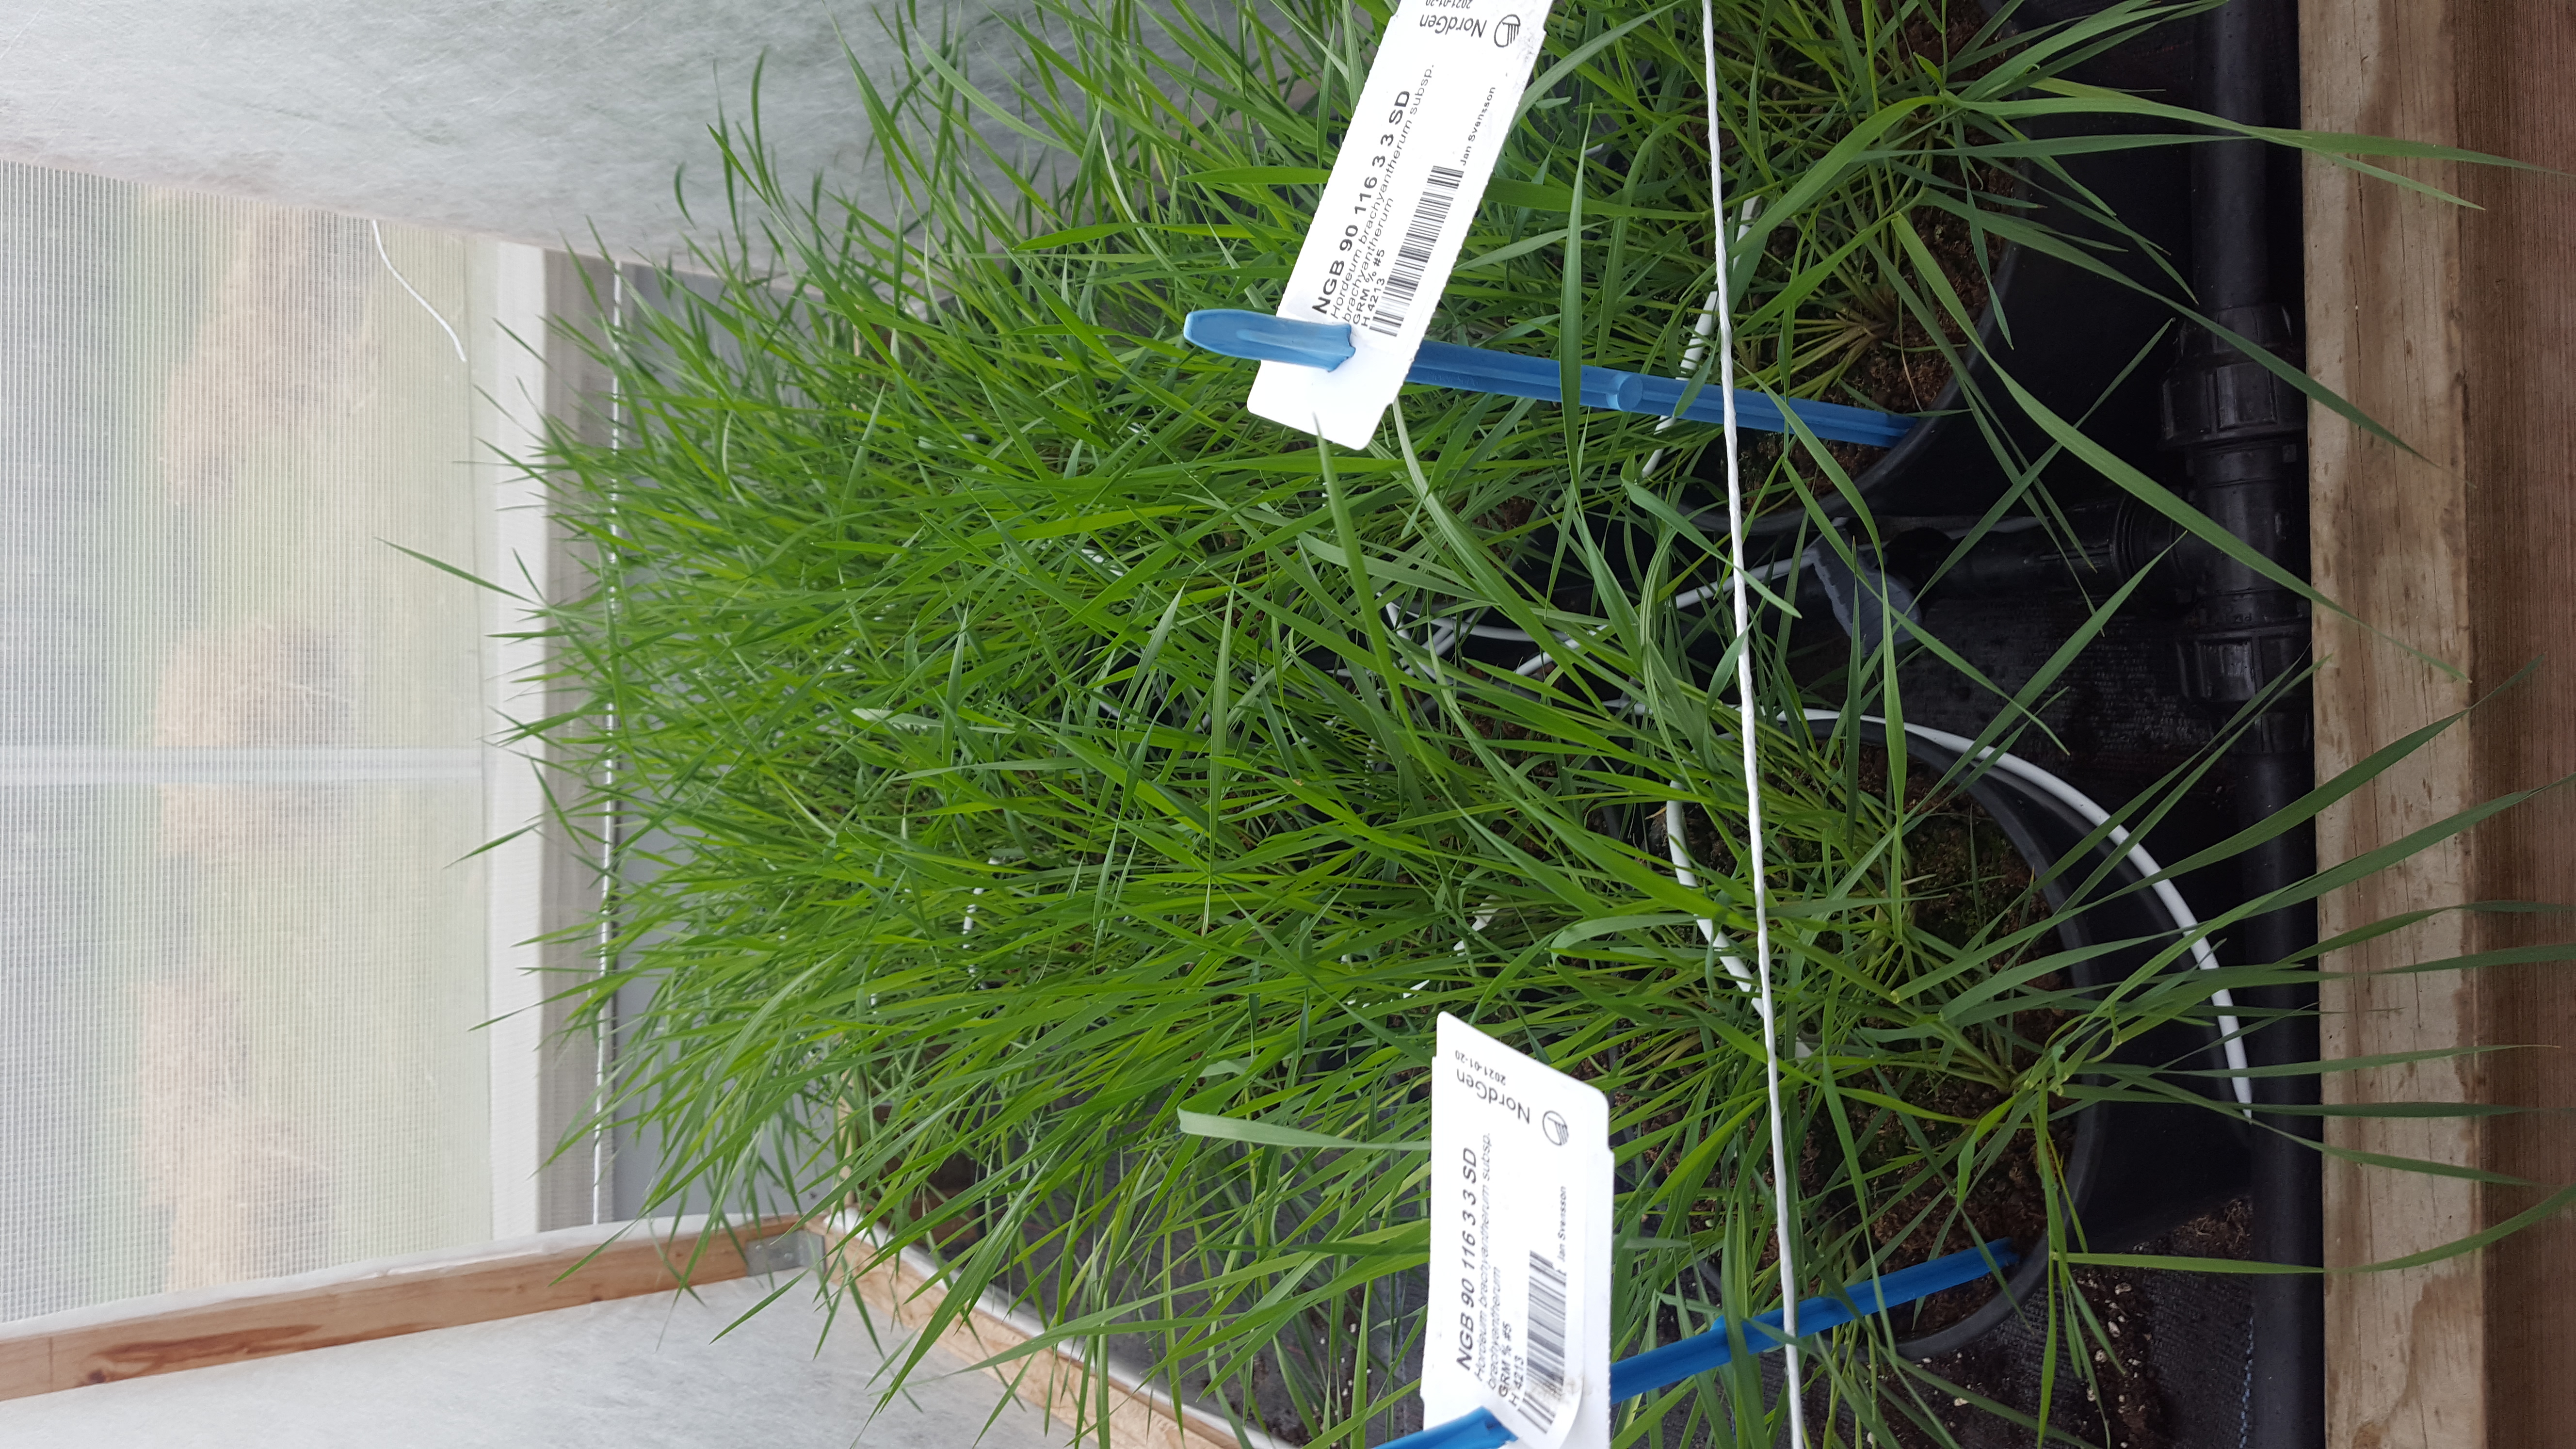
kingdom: Plantae
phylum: Tracheophyta
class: Liliopsida
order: Poales
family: Poaceae
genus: Hordeum
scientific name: Hordeum brachyantherum
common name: Meadow barley
